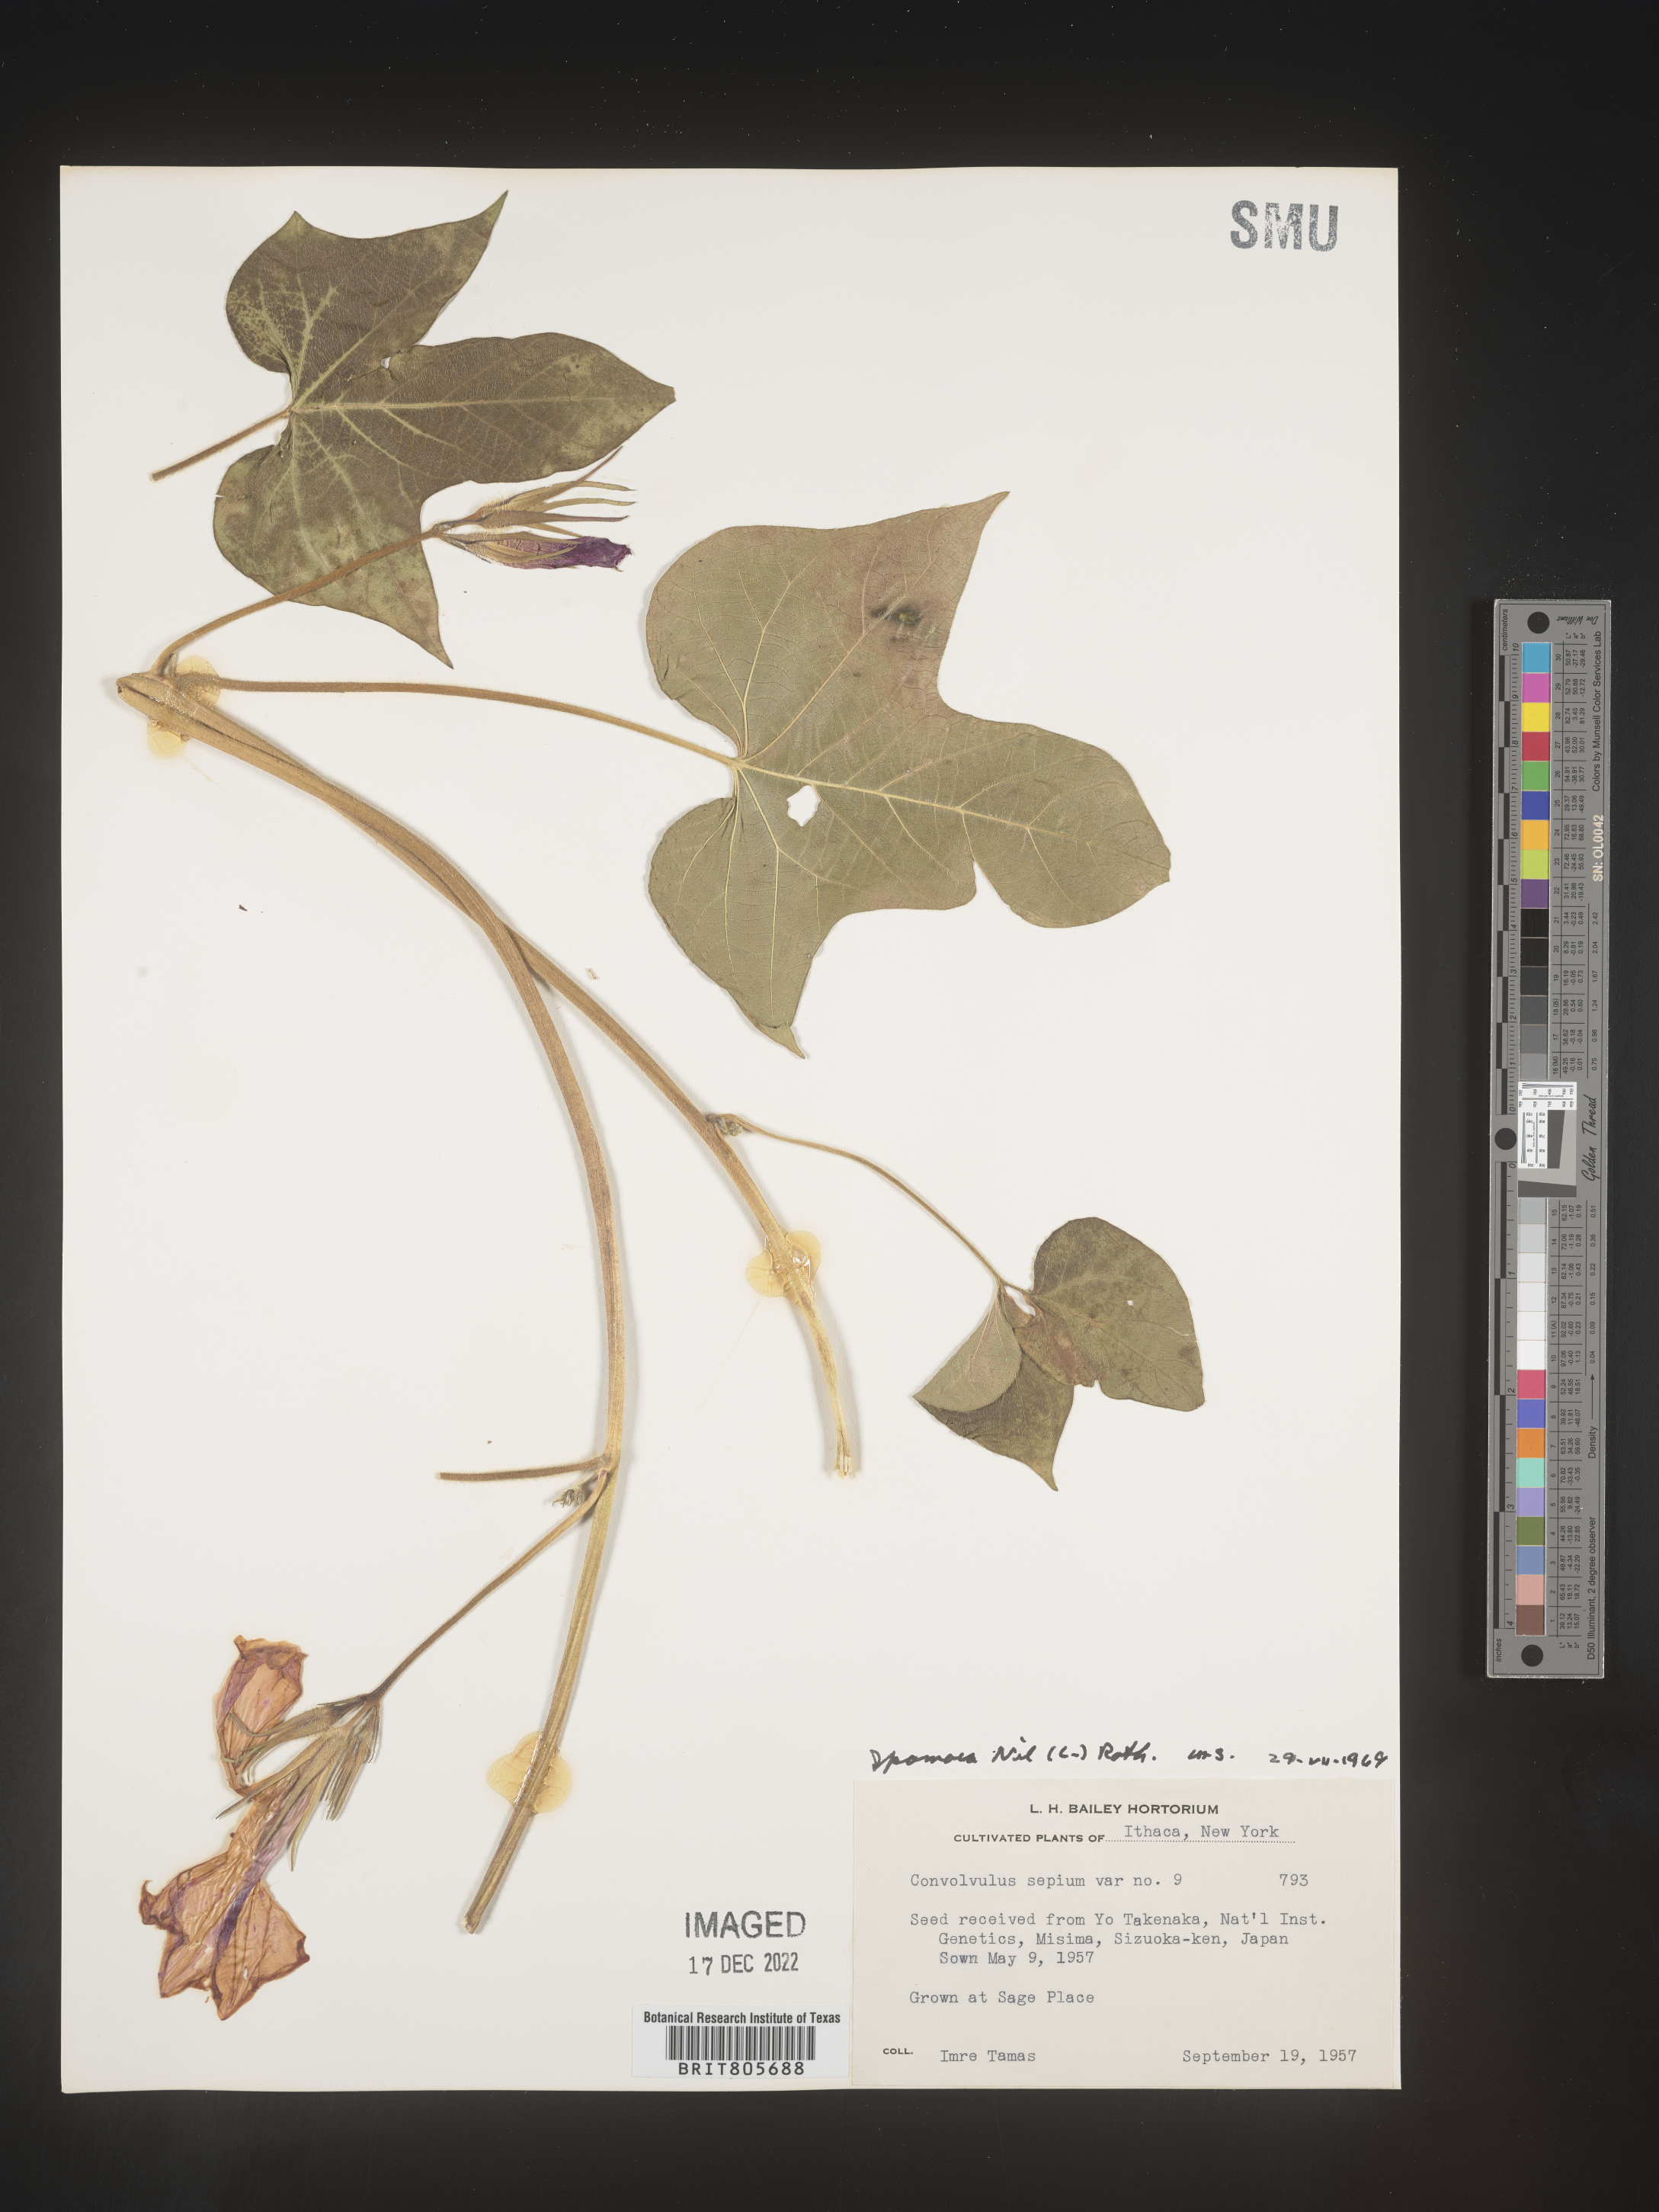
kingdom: Plantae
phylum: Tracheophyta
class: Magnoliopsida
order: Solanales
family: Convolvulaceae
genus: Ipomoea
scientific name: Ipomoea
